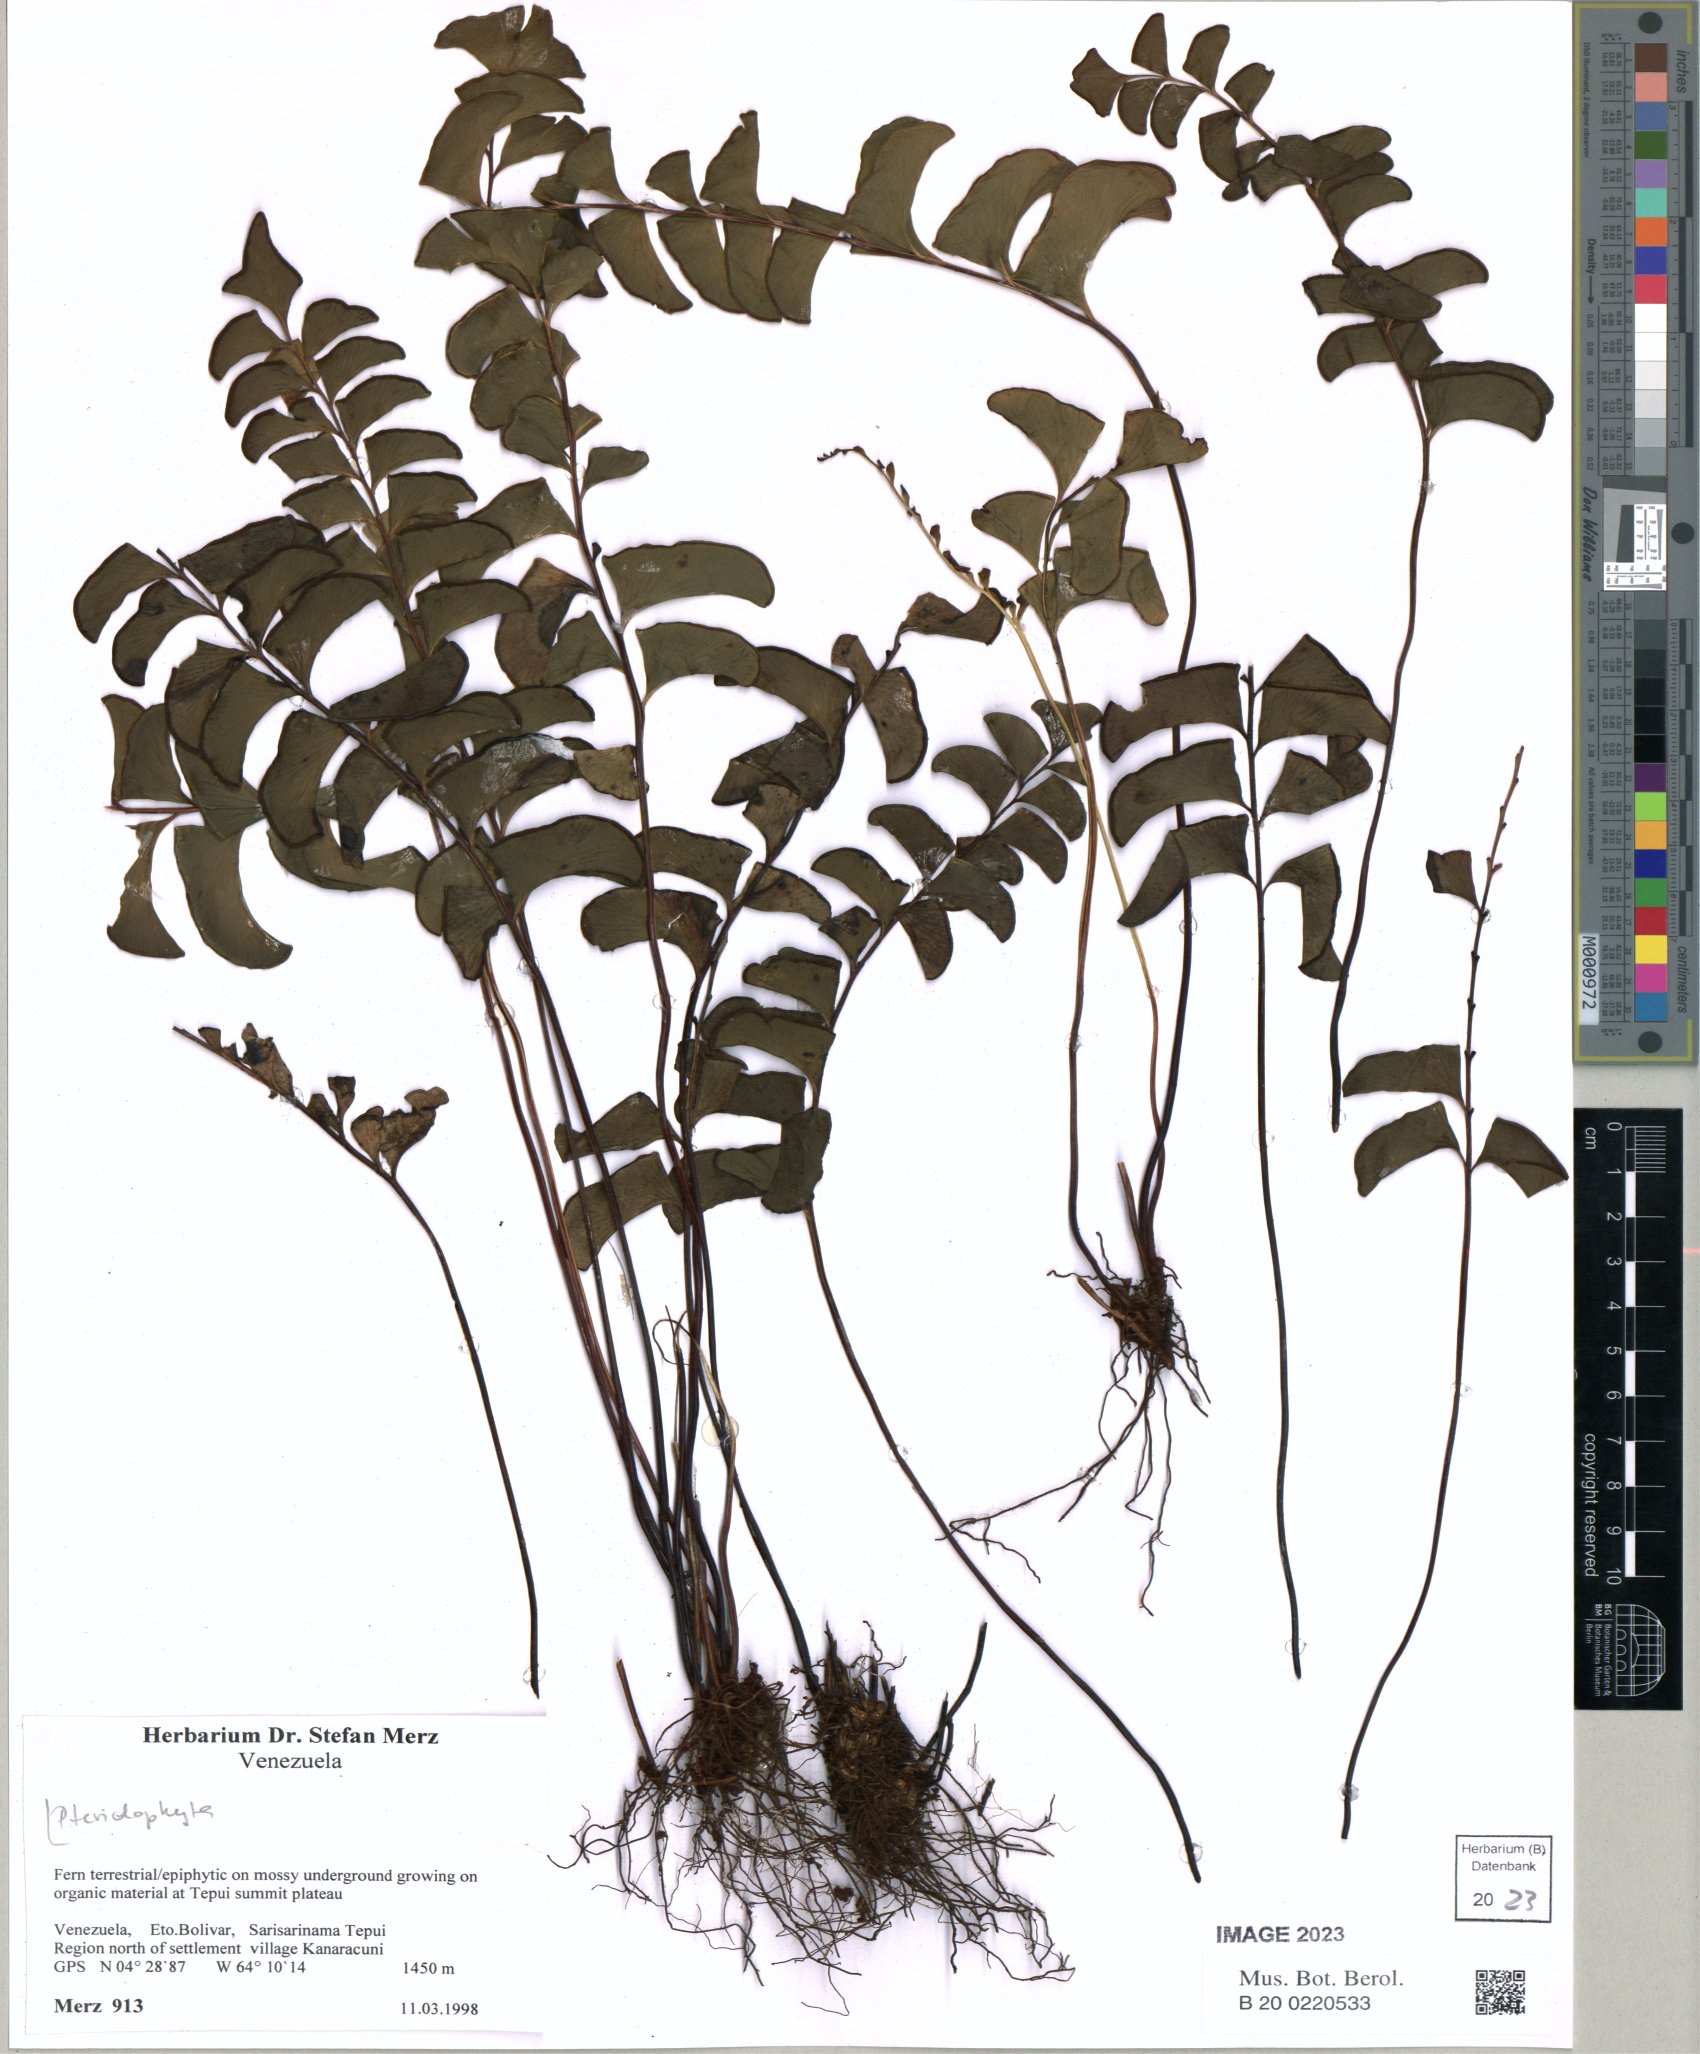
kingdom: Plantae
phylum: Tracheophyta
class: Polypodiopsida
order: Polypodiales
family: Lindsaeaceae
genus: Lindsaea
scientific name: Lindsaea falcata
